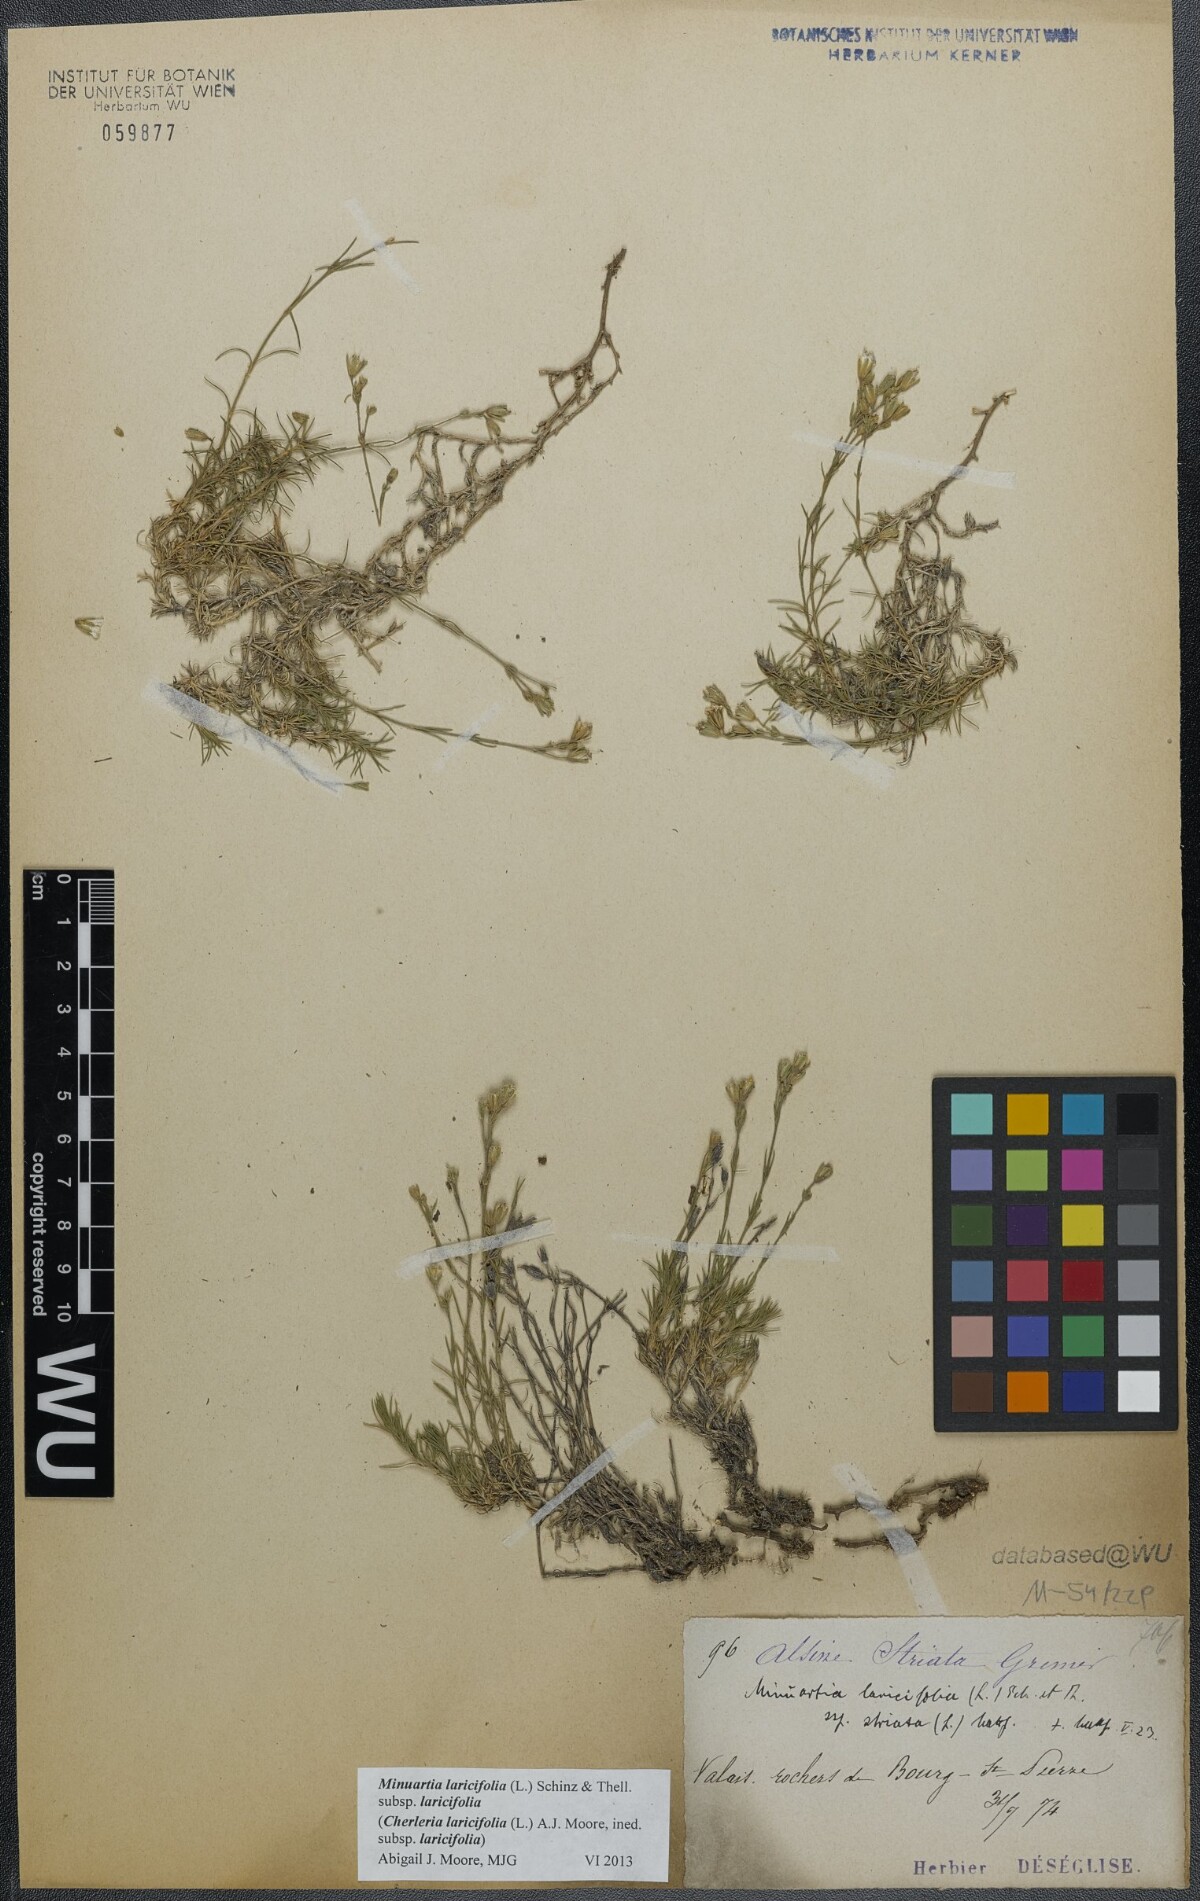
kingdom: Plantae
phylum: Tracheophyta
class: Magnoliopsida
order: Caryophyllales
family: Caryophyllaceae
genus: Cherleria
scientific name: Cherleria laricifolia
